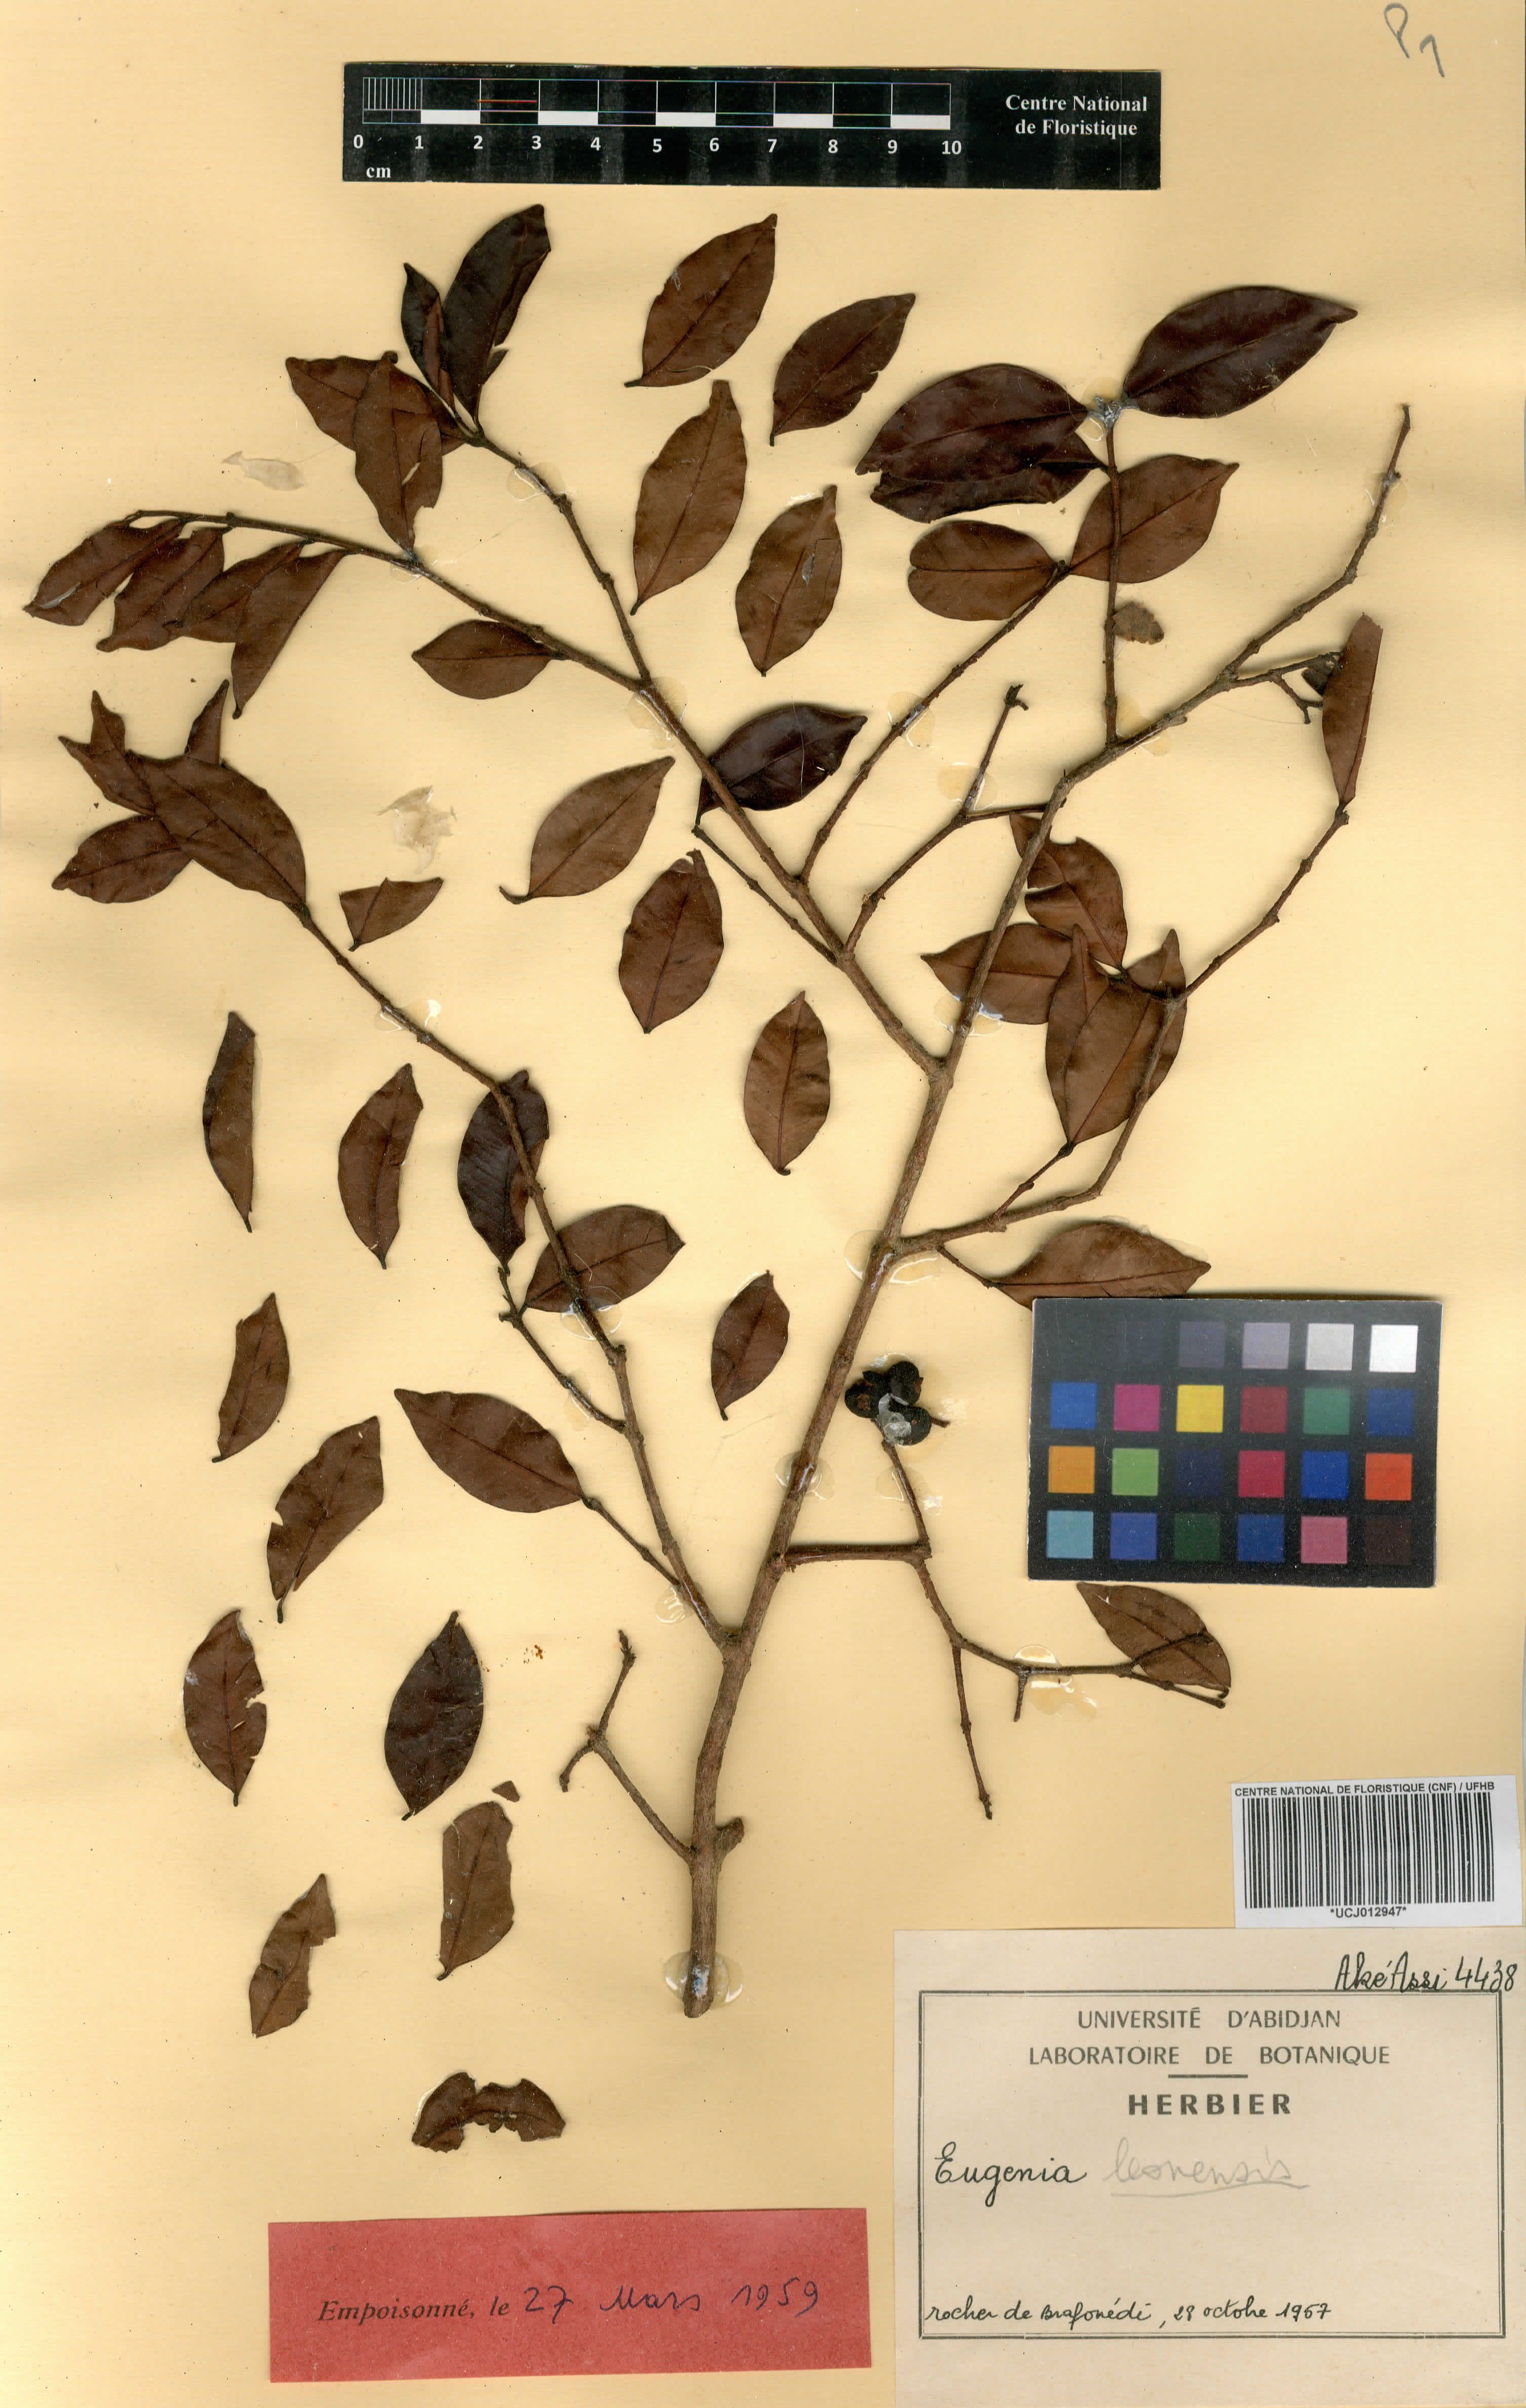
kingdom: Plantae
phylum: Tracheophyta
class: Magnoliopsida
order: Myrtales
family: Myrtaceae
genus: Eugenia
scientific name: Eugenia gabonensis
